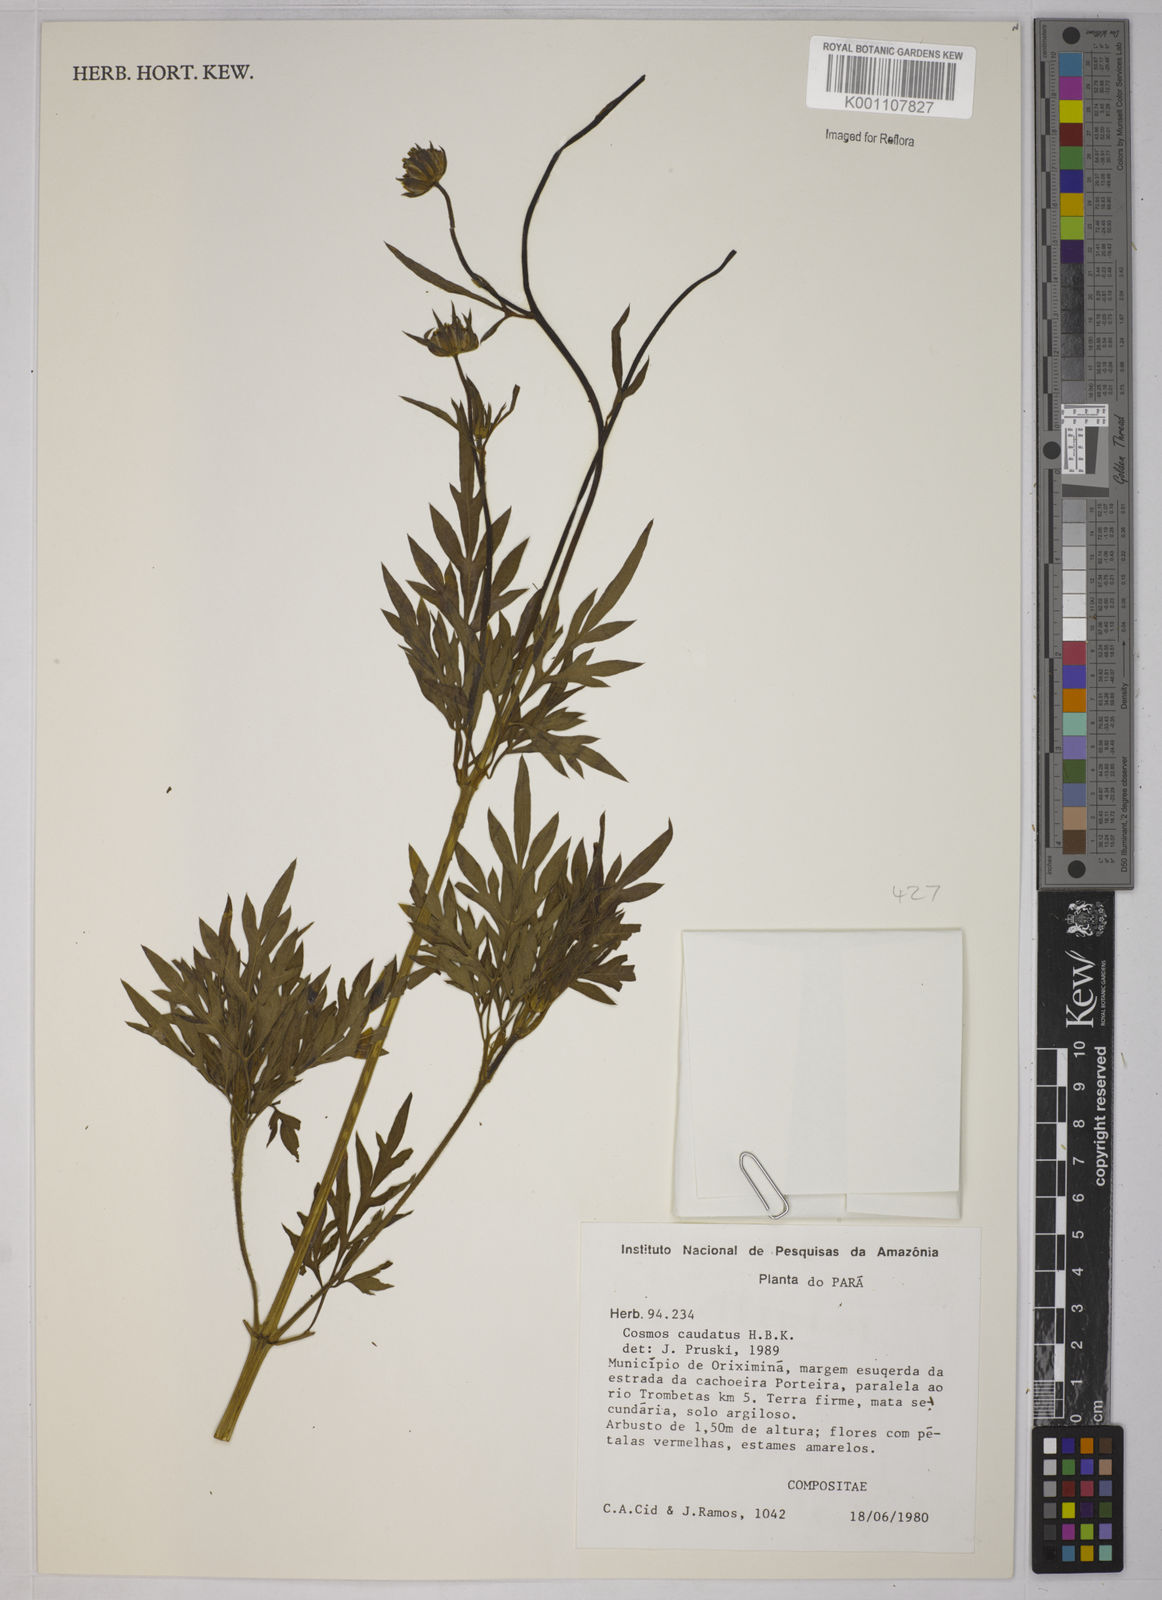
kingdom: Plantae
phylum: Tracheophyta
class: Magnoliopsida
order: Asterales
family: Asteraceae
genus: Cosmos
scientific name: Cosmos caudatus
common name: Wild cosmos
